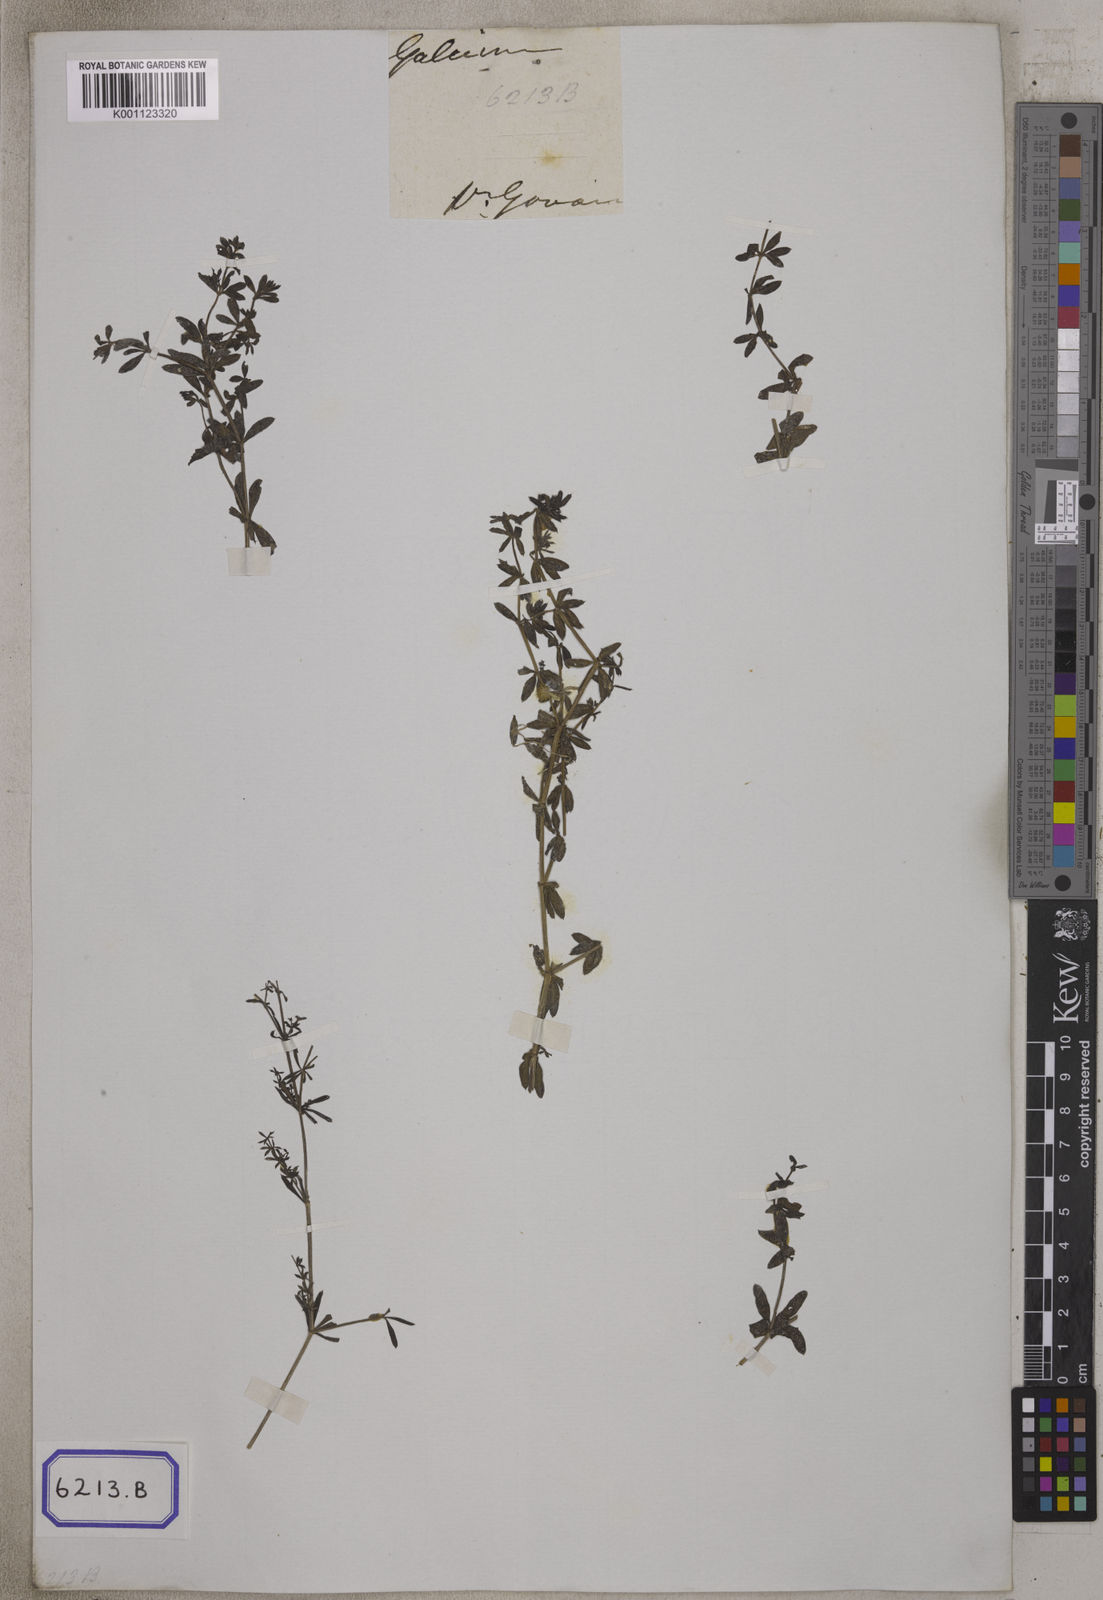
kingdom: Plantae
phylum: Tracheophyta
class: Magnoliopsida
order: Gentianales
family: Rubiaceae
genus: Galium
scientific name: Galium aparine
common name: Cleavers
